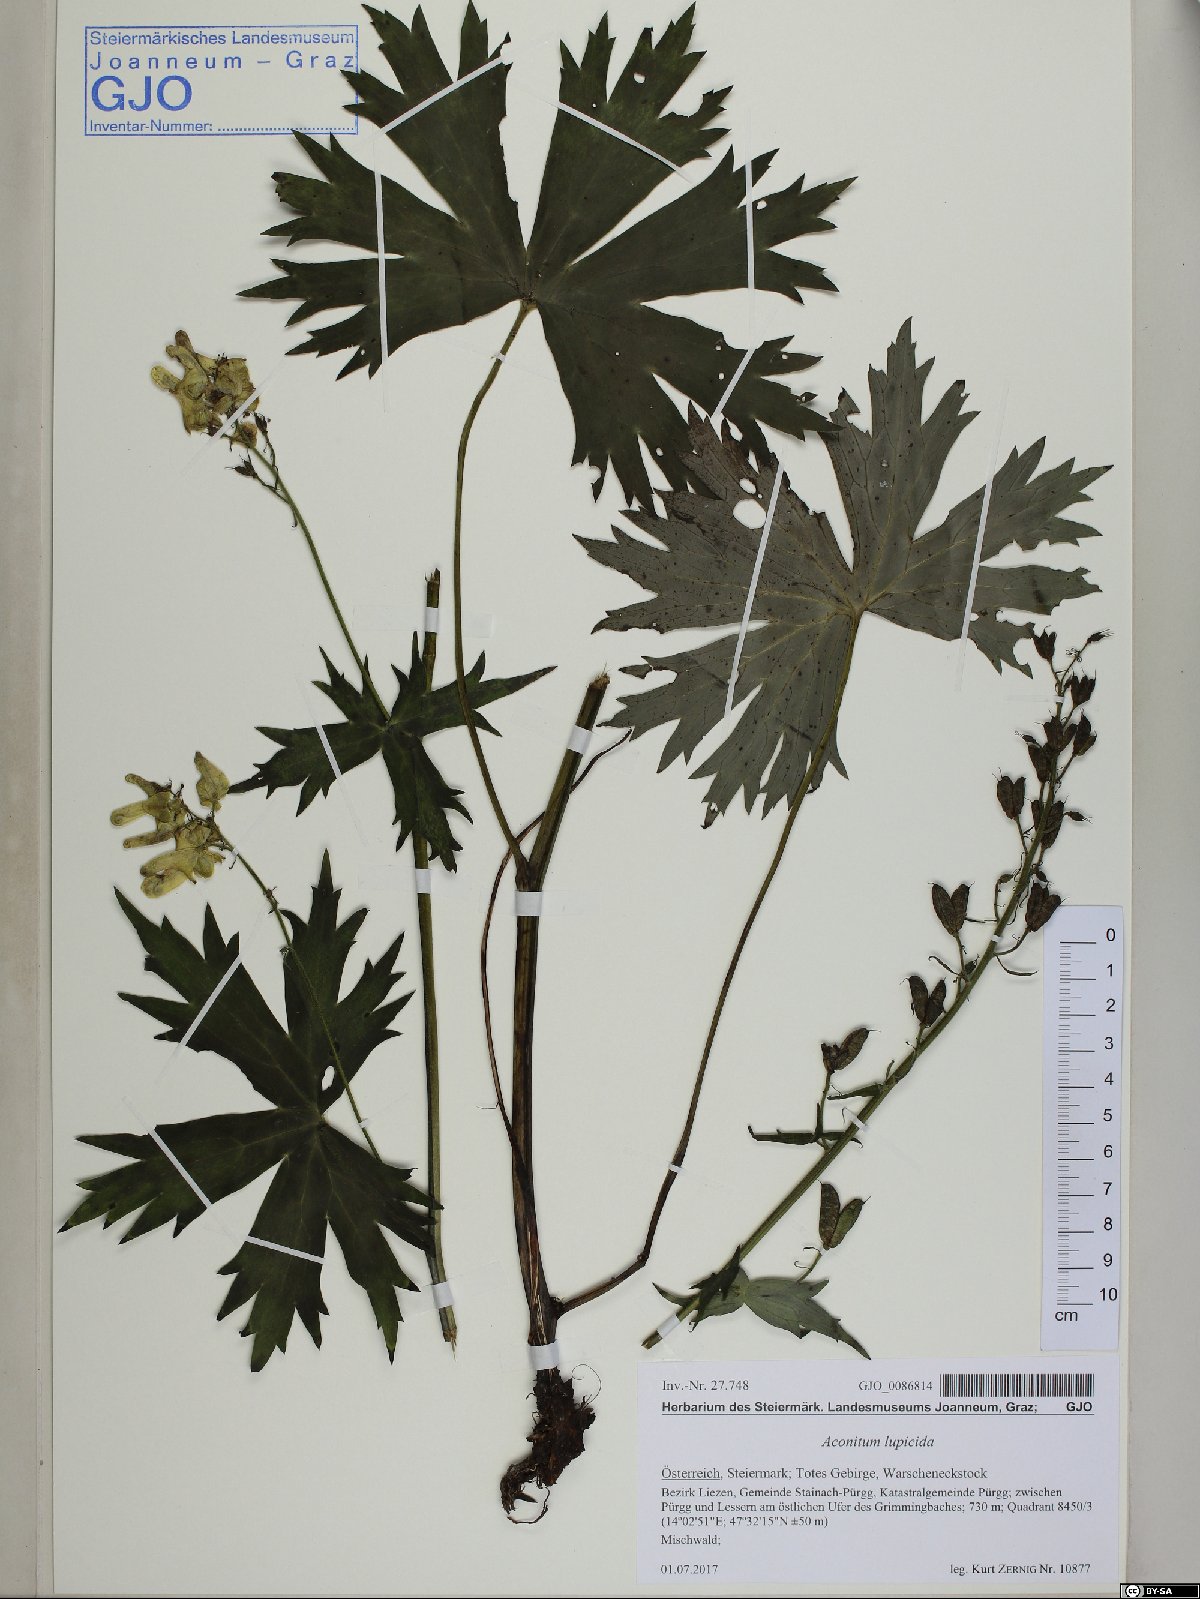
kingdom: Plantae
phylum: Tracheophyta
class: Magnoliopsida
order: Ranunculales
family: Ranunculaceae
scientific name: Ranunculaceae
